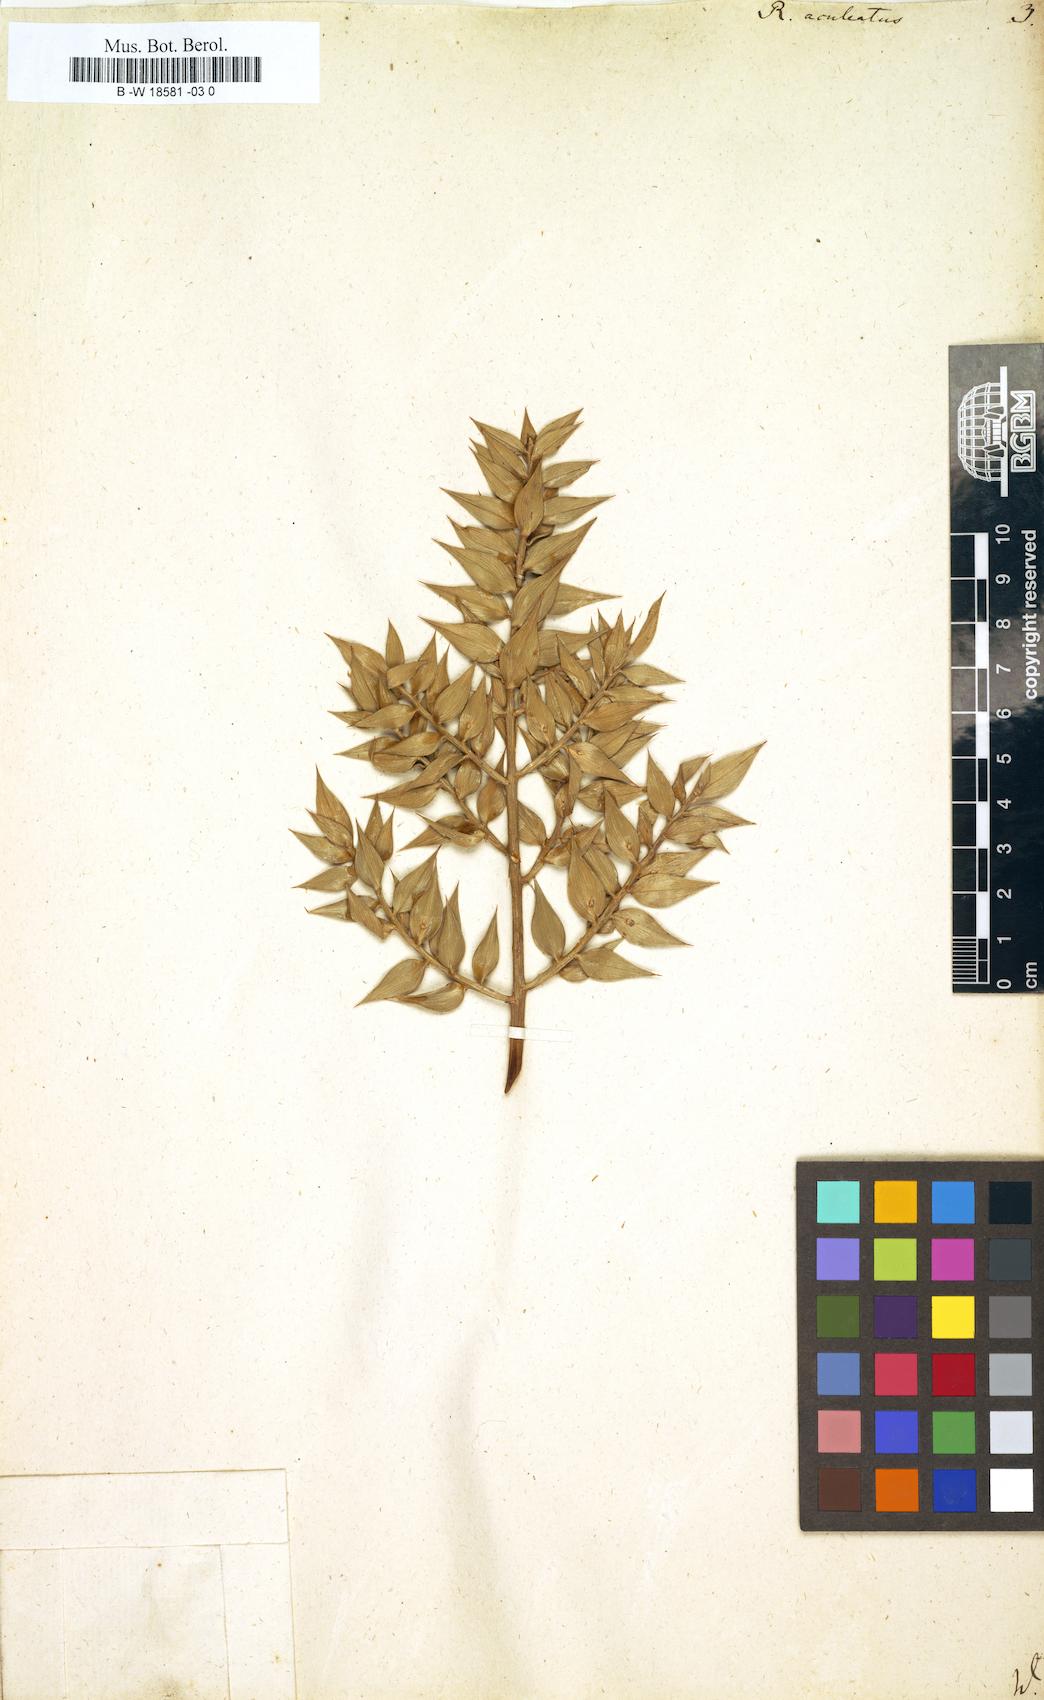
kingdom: Plantae
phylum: Tracheophyta
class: Liliopsida
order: Asparagales
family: Asparagaceae
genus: Ruscus
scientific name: Ruscus aculeatus
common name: Butcher's-broom
